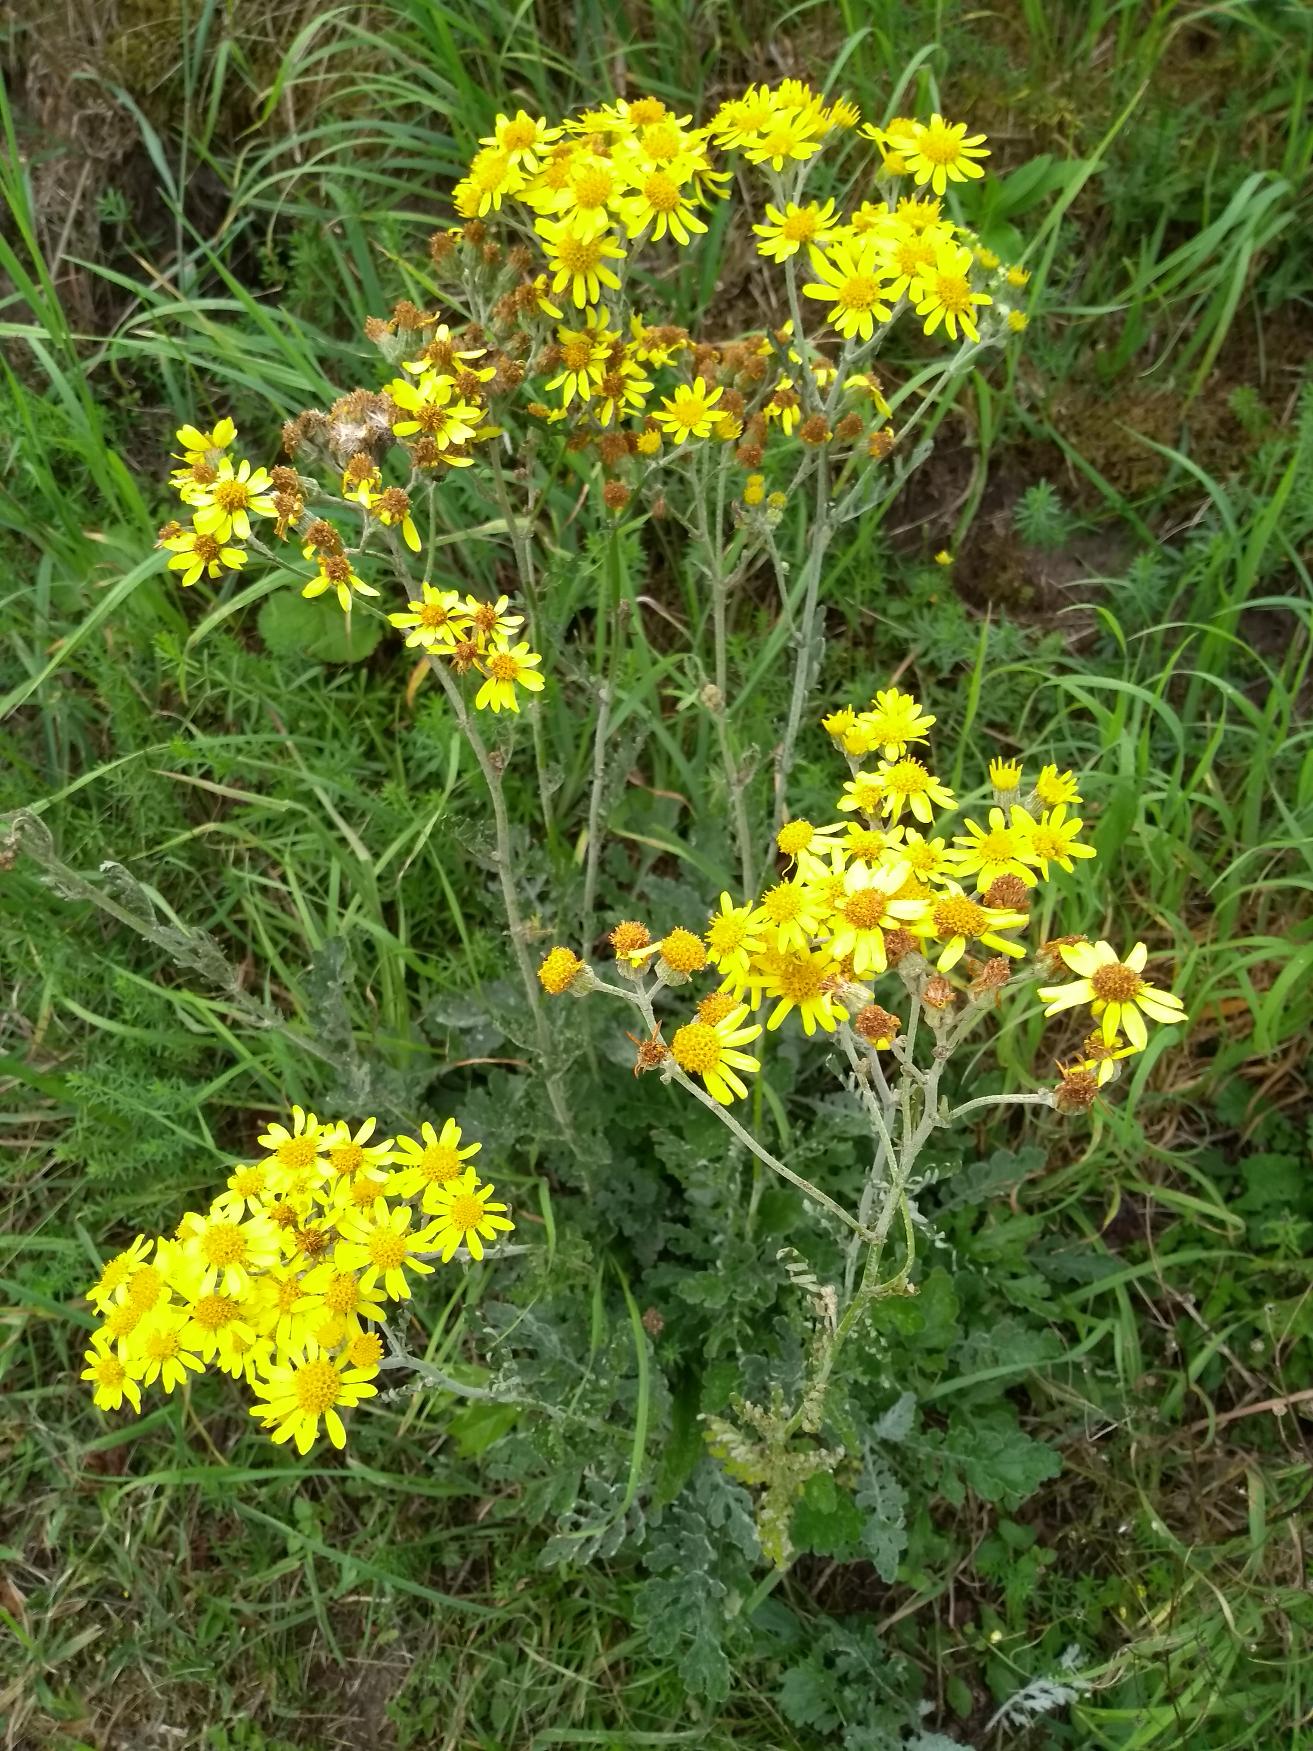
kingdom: Plantae
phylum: Tracheophyta
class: Magnoliopsida
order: Asterales
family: Asteraceae
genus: Jacobaea
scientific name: Jacobaea vulgaris
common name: Eng-brandbæger
